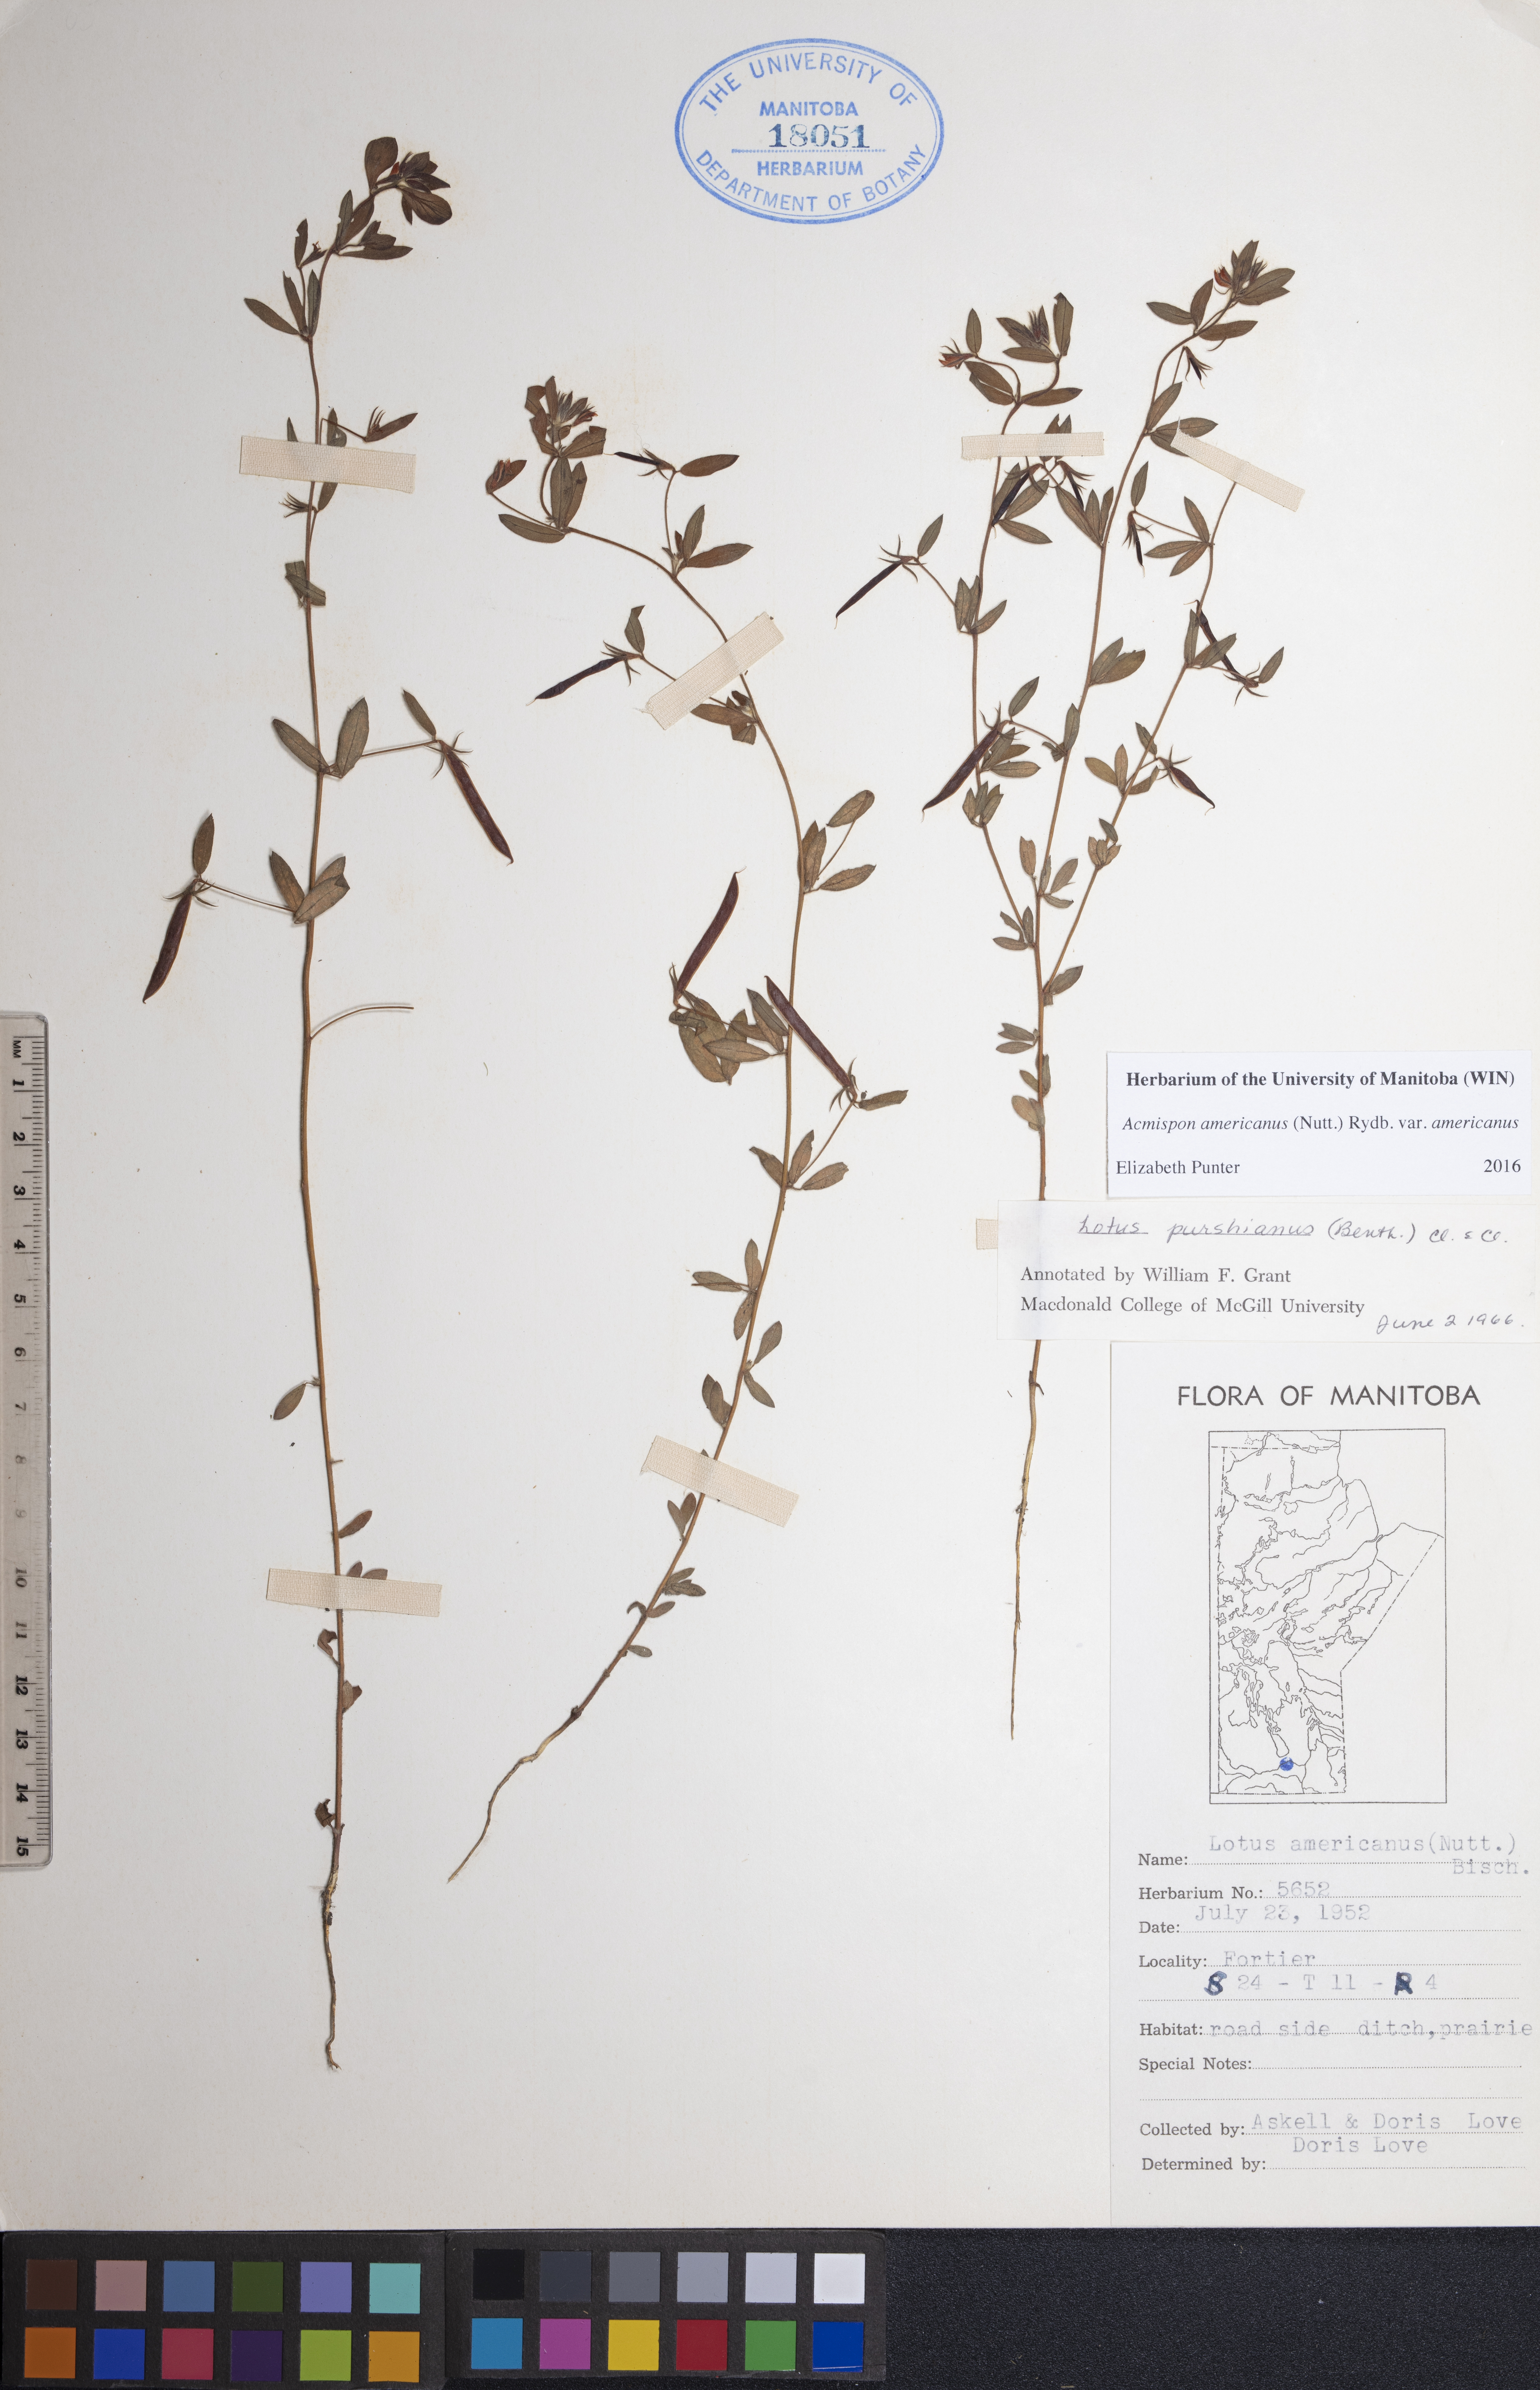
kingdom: Plantae
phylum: Tracheophyta
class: Magnoliopsida
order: Fabales
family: Fabaceae
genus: Acmispon
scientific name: Acmispon americanus
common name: American bird's-foot trefoil
